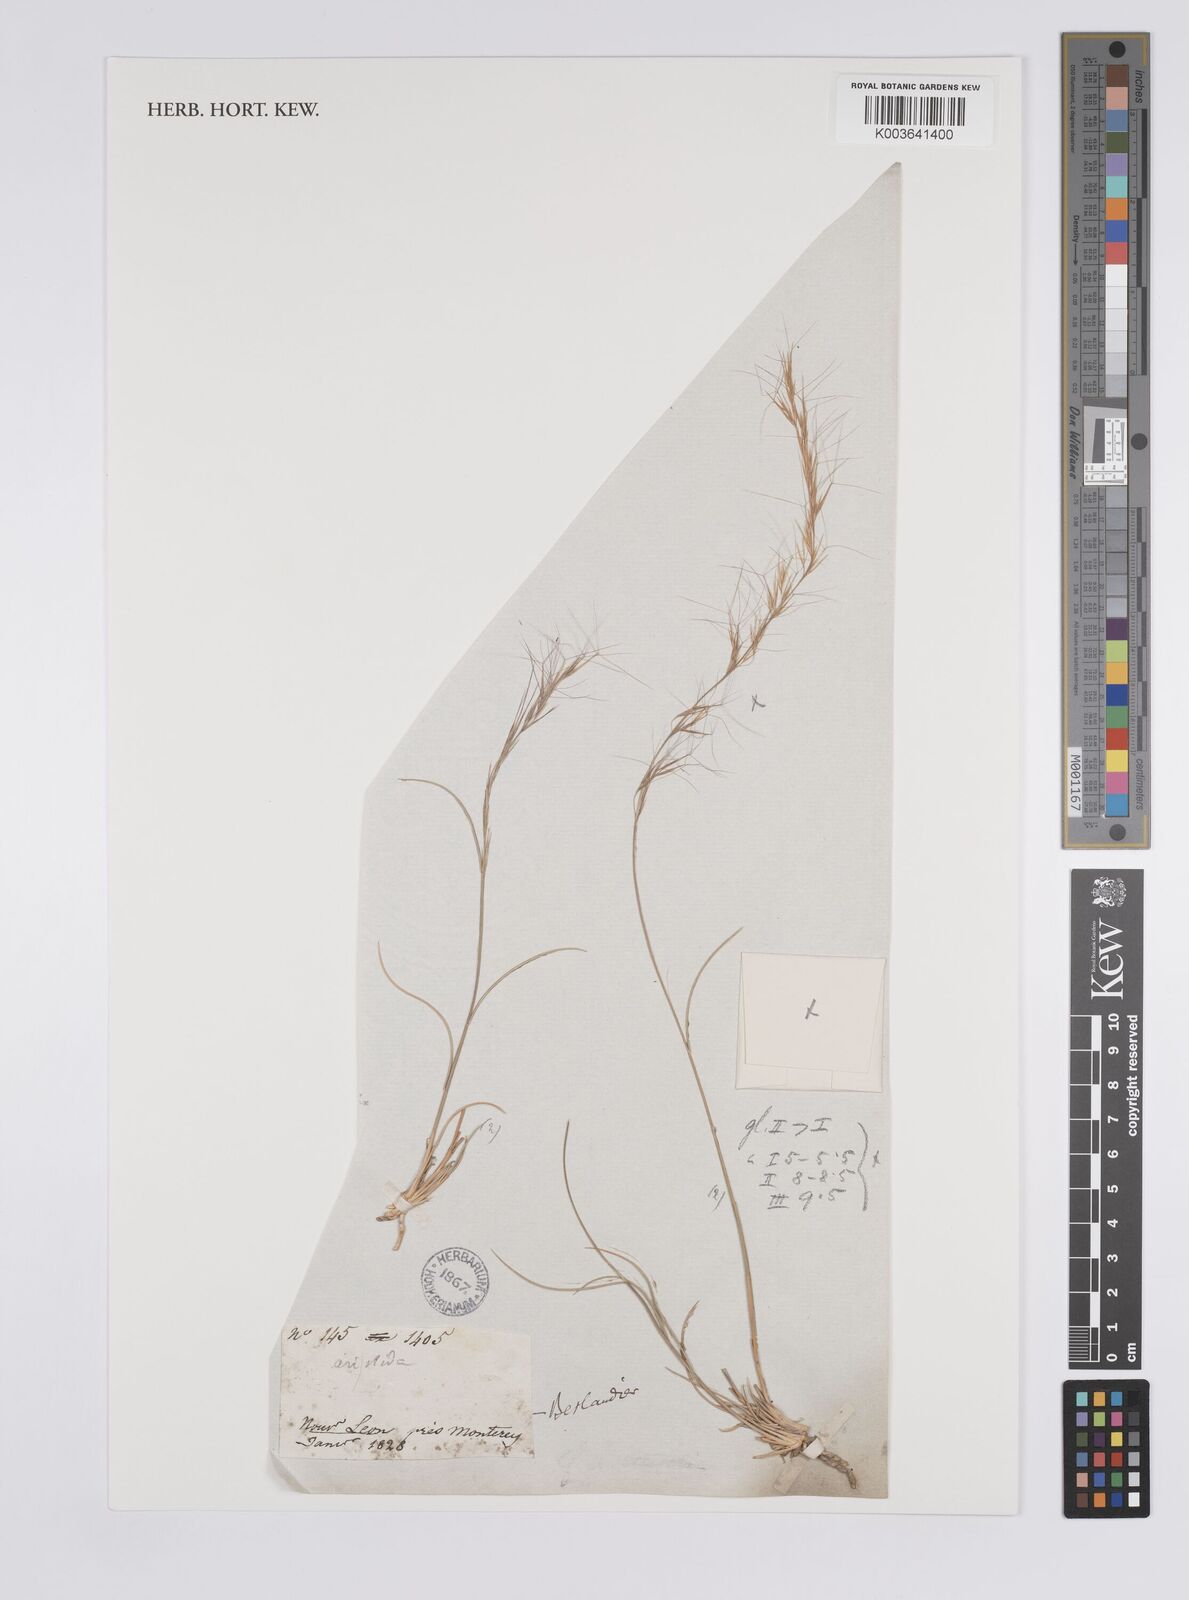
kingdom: Plantae
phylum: Tracheophyta
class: Liliopsida
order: Poales
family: Poaceae
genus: Aristida
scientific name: Aristida purpurea
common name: Purple threeawn
